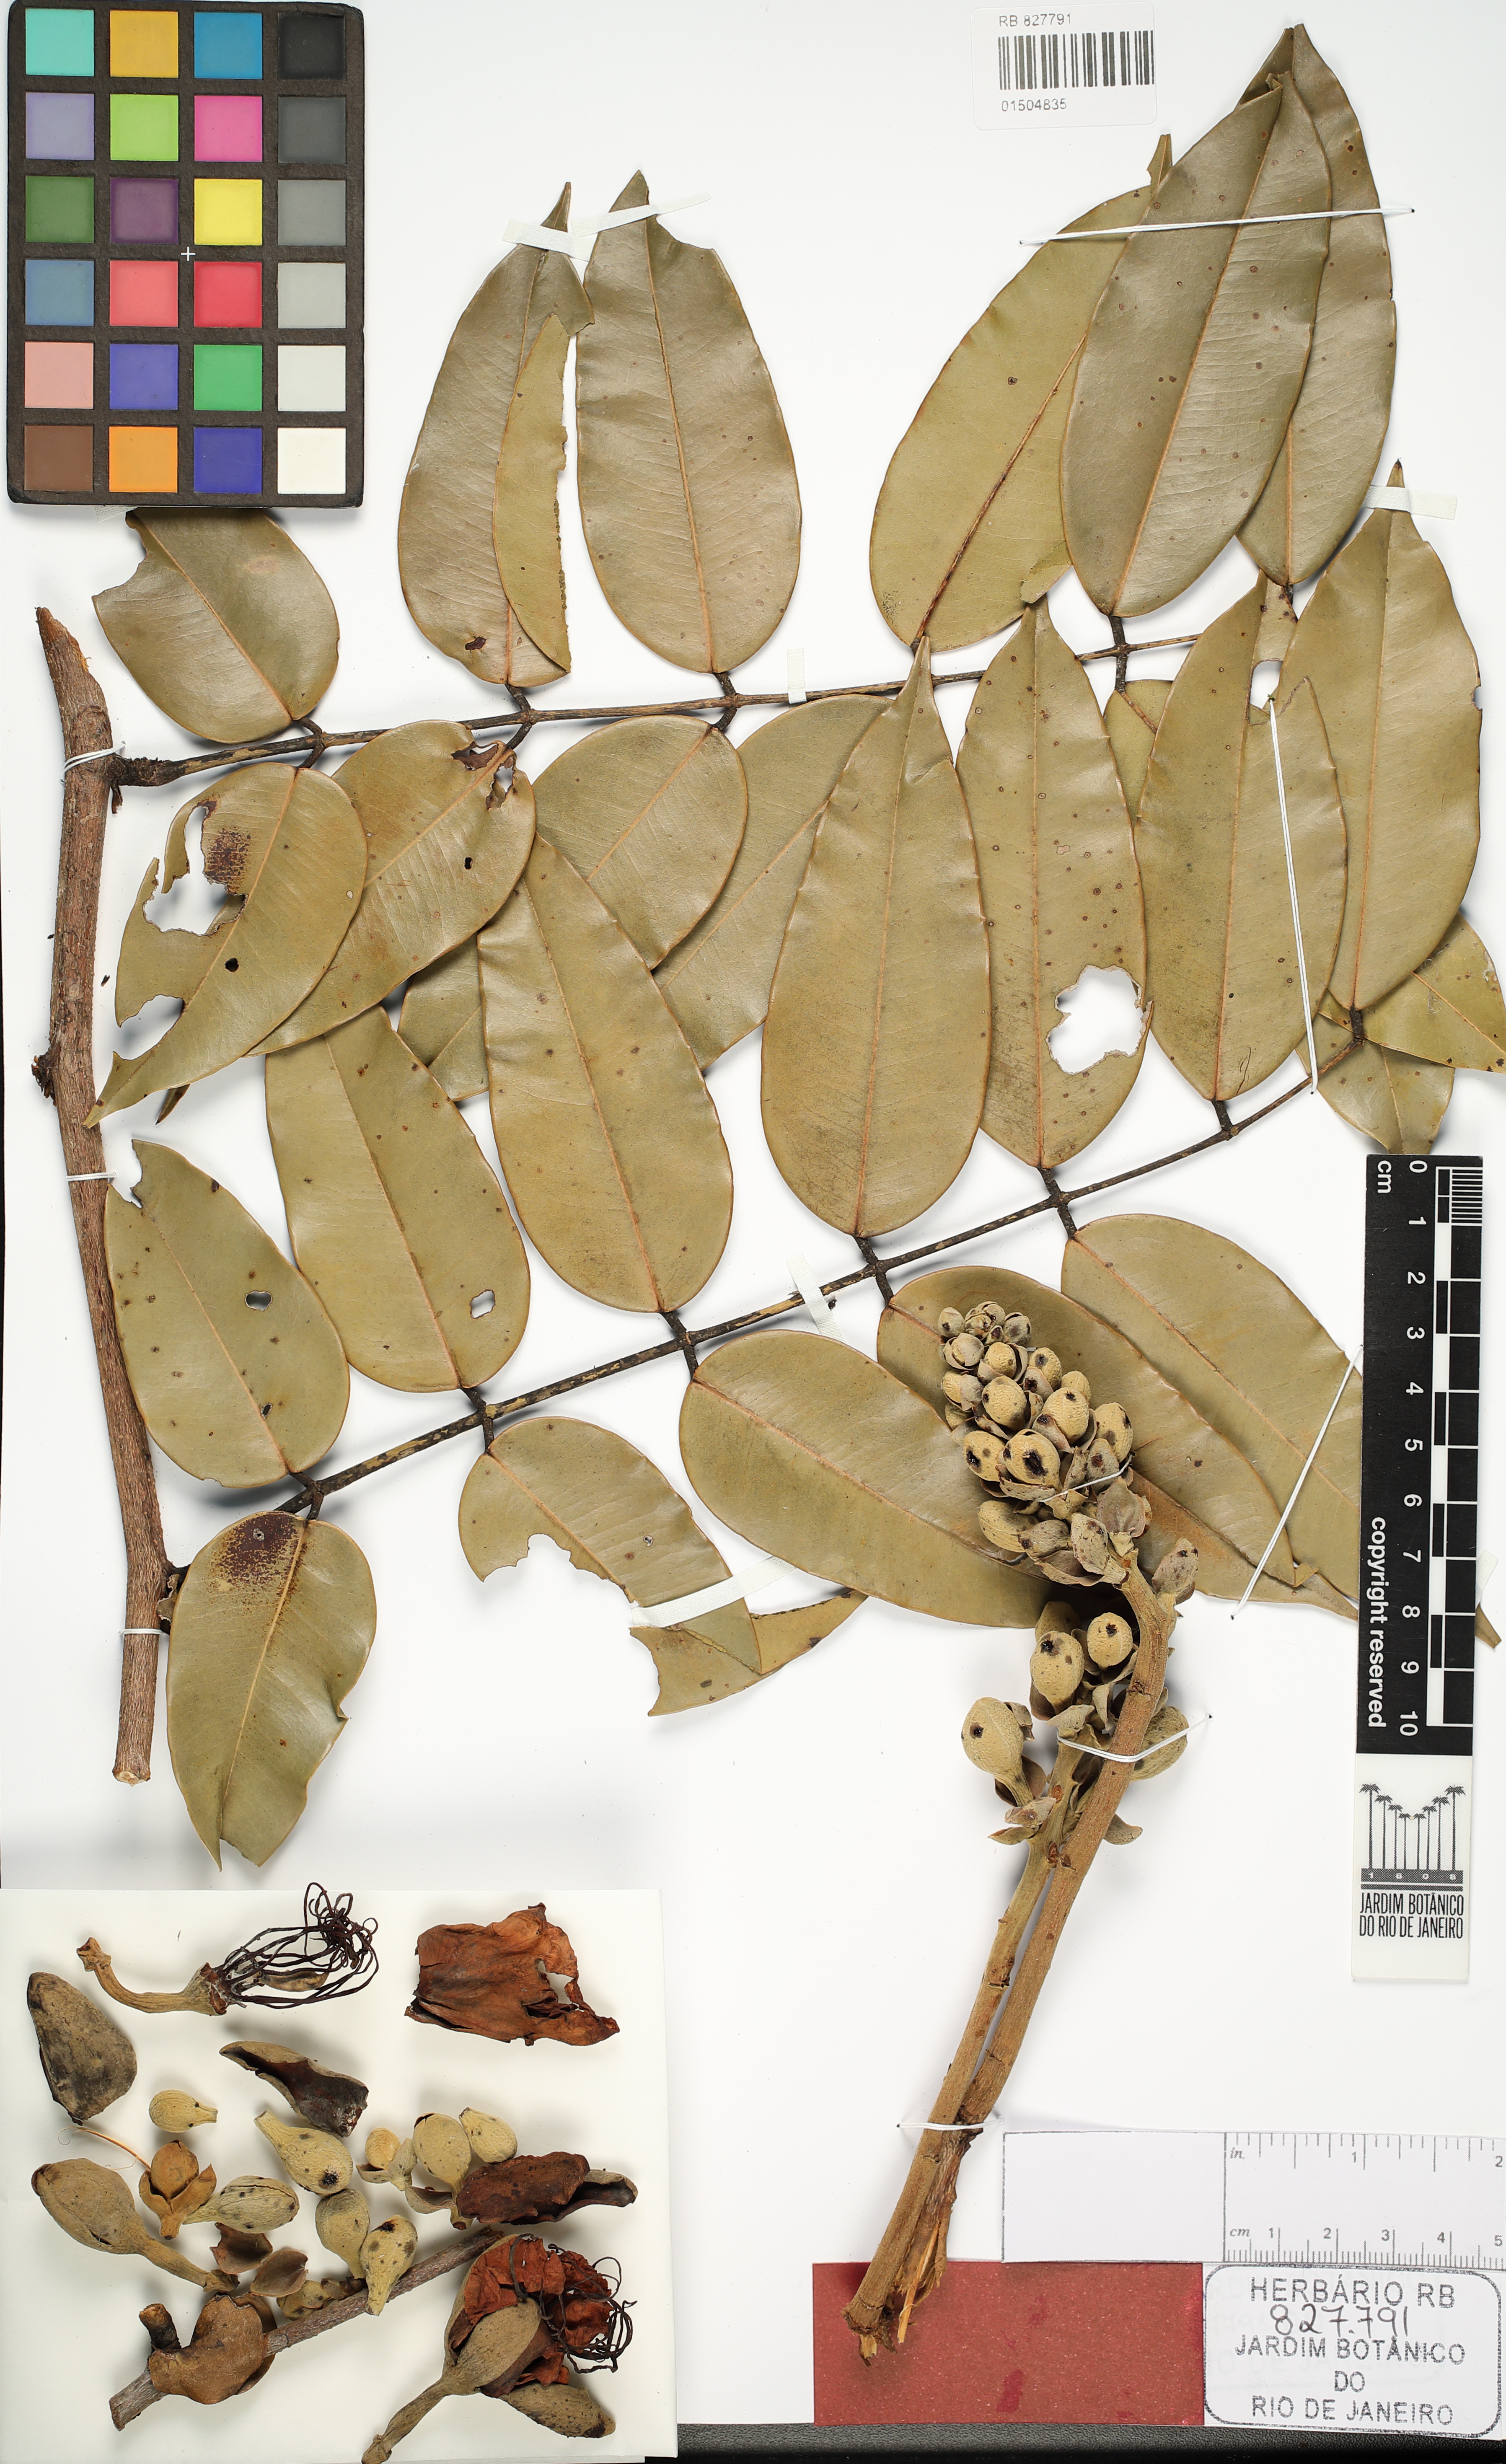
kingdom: Plantae
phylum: Tracheophyta
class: Magnoliopsida
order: Fabales
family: Fabaceae
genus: Eperua
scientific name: Eperua cerradoensis
